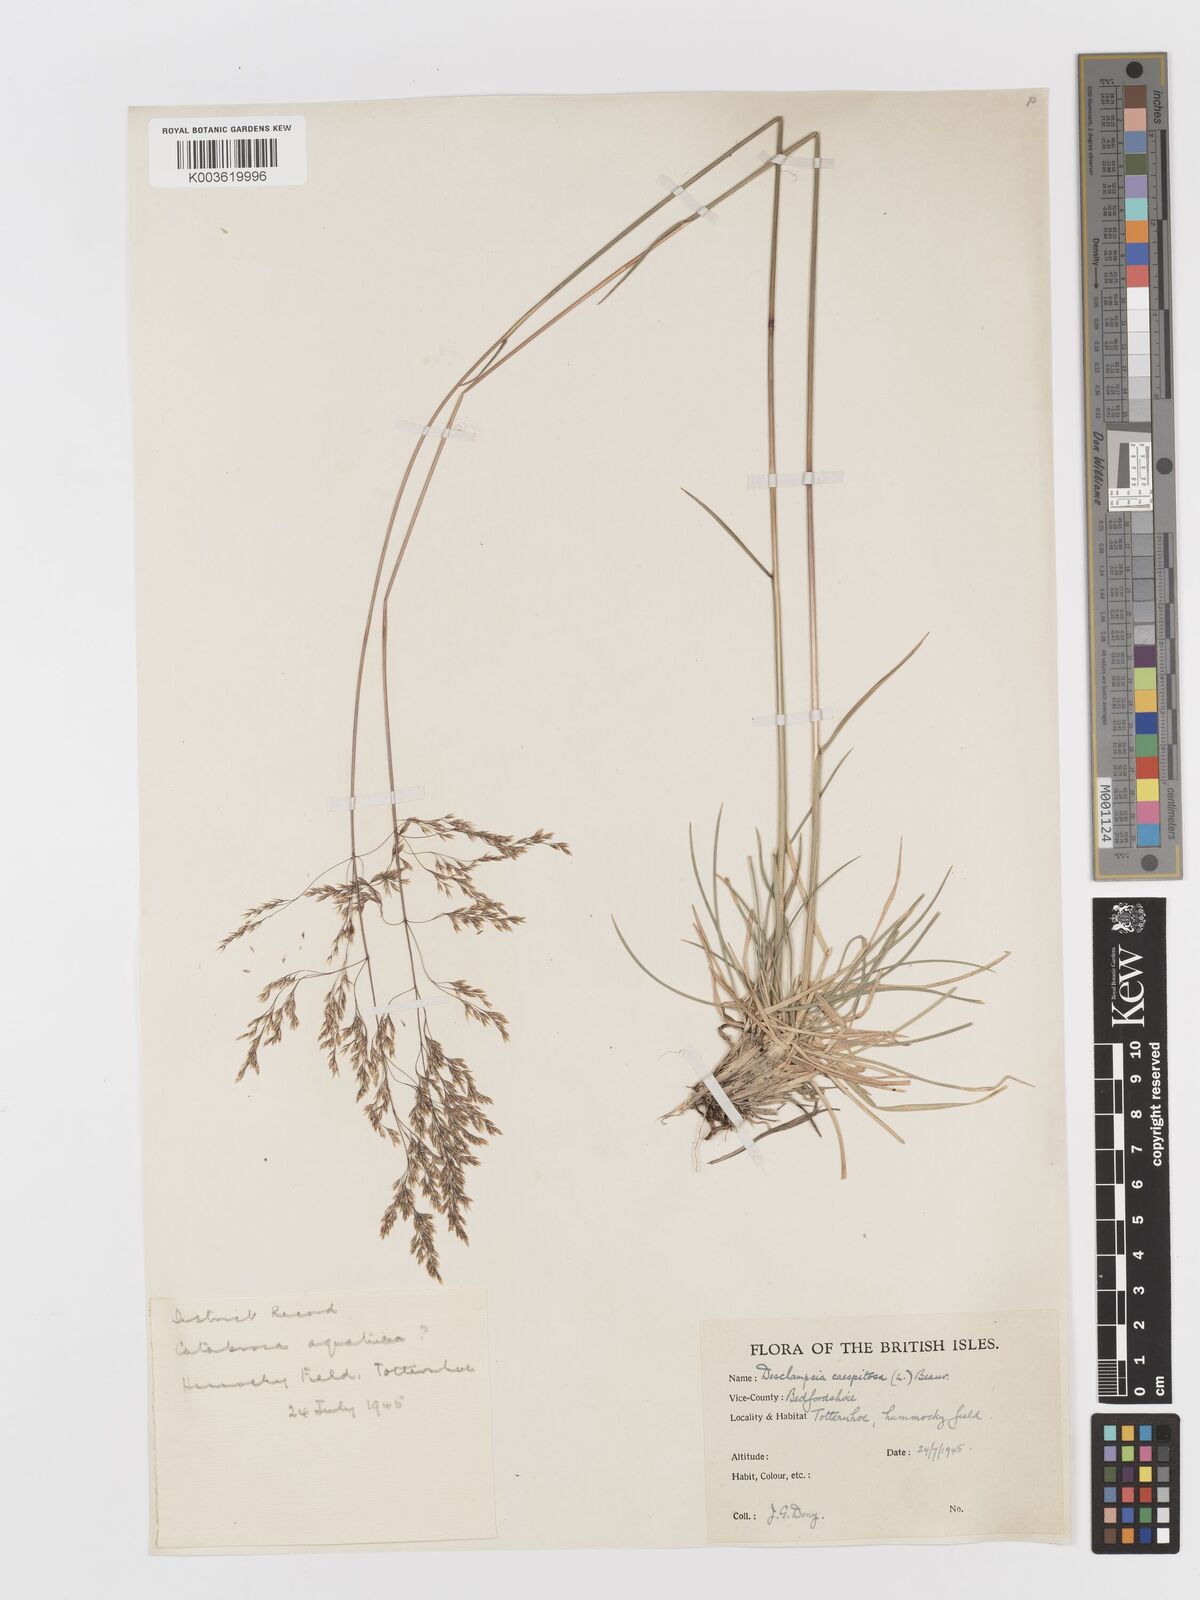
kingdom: Plantae
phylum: Tracheophyta
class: Liliopsida
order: Poales
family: Poaceae
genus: Deschampsia
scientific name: Deschampsia cespitosa
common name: Tufted hair-grass
